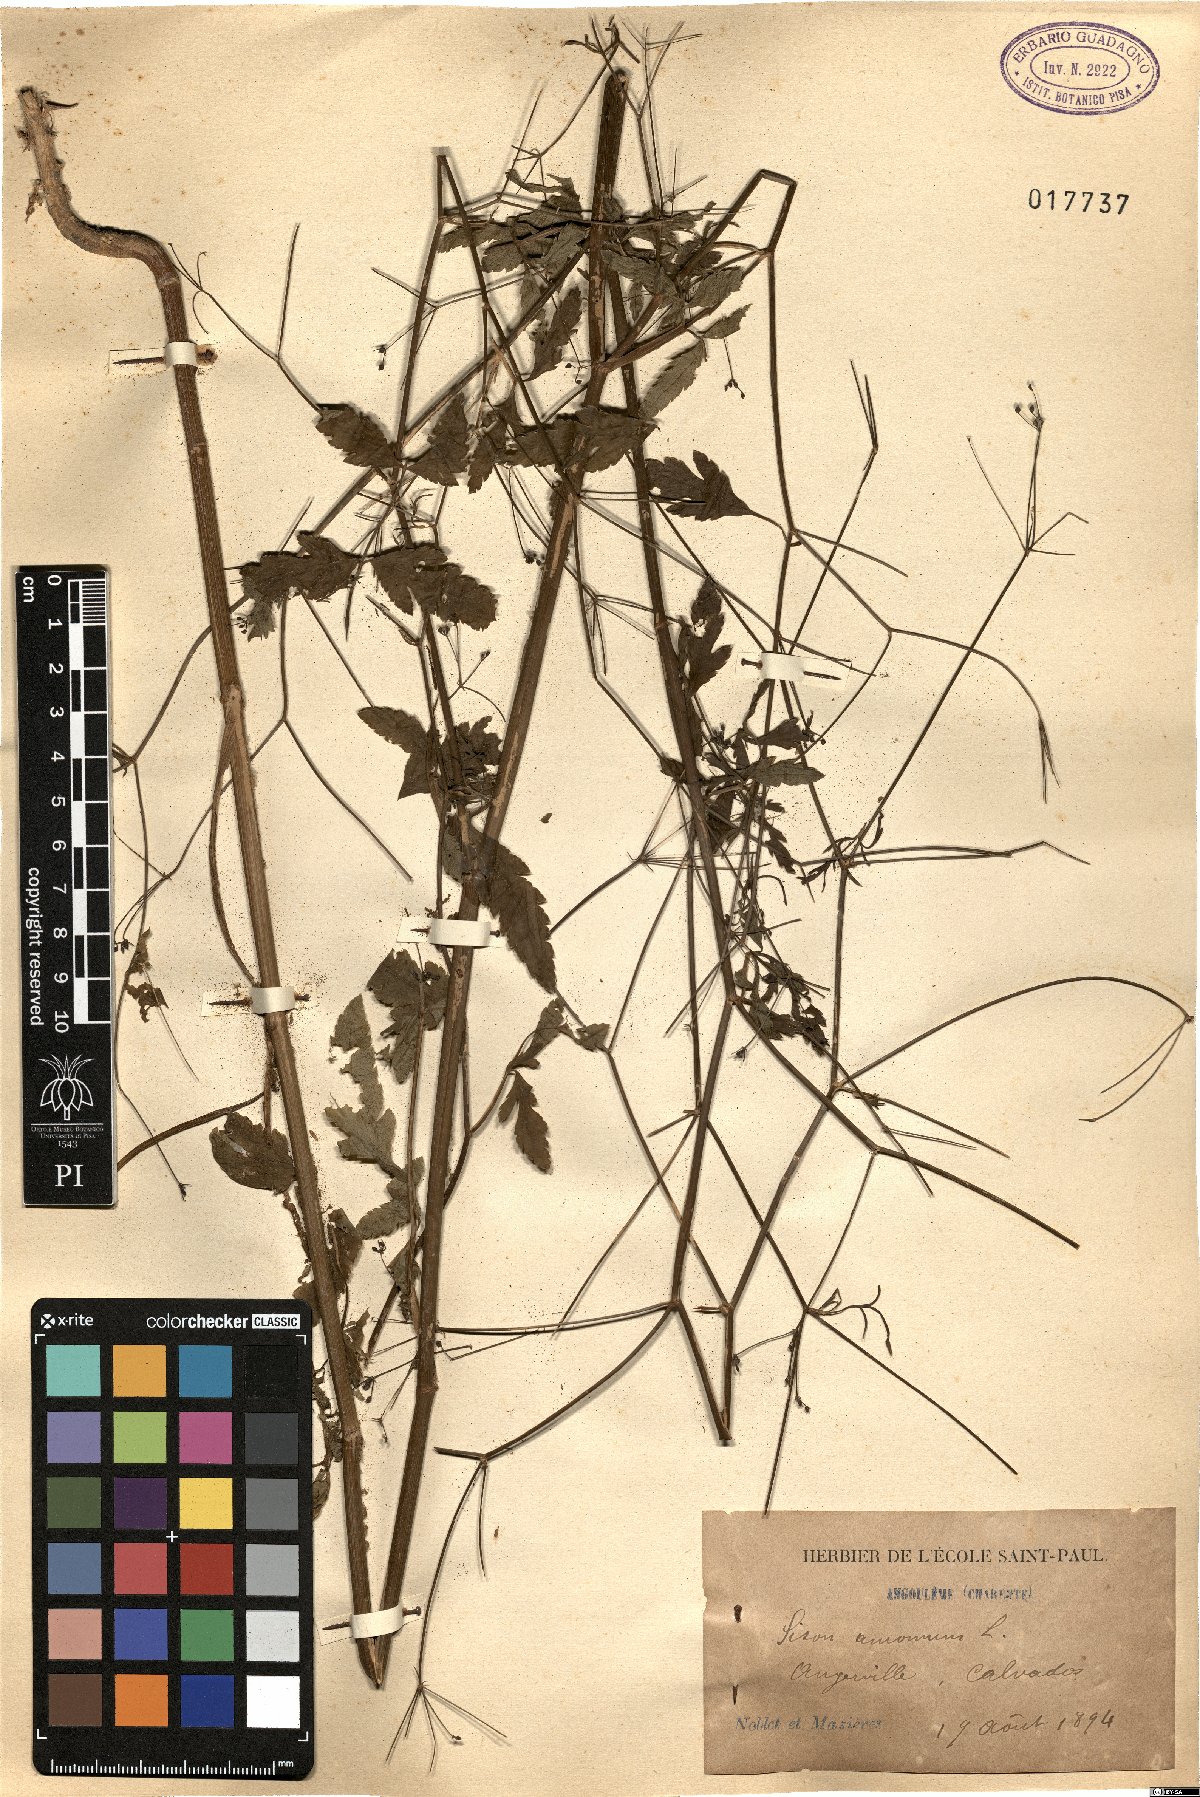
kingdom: Plantae
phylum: Tracheophyta
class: Magnoliopsida
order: Apiales
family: Apiaceae
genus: Sison
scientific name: Sison amomum
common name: Stone-parsley
